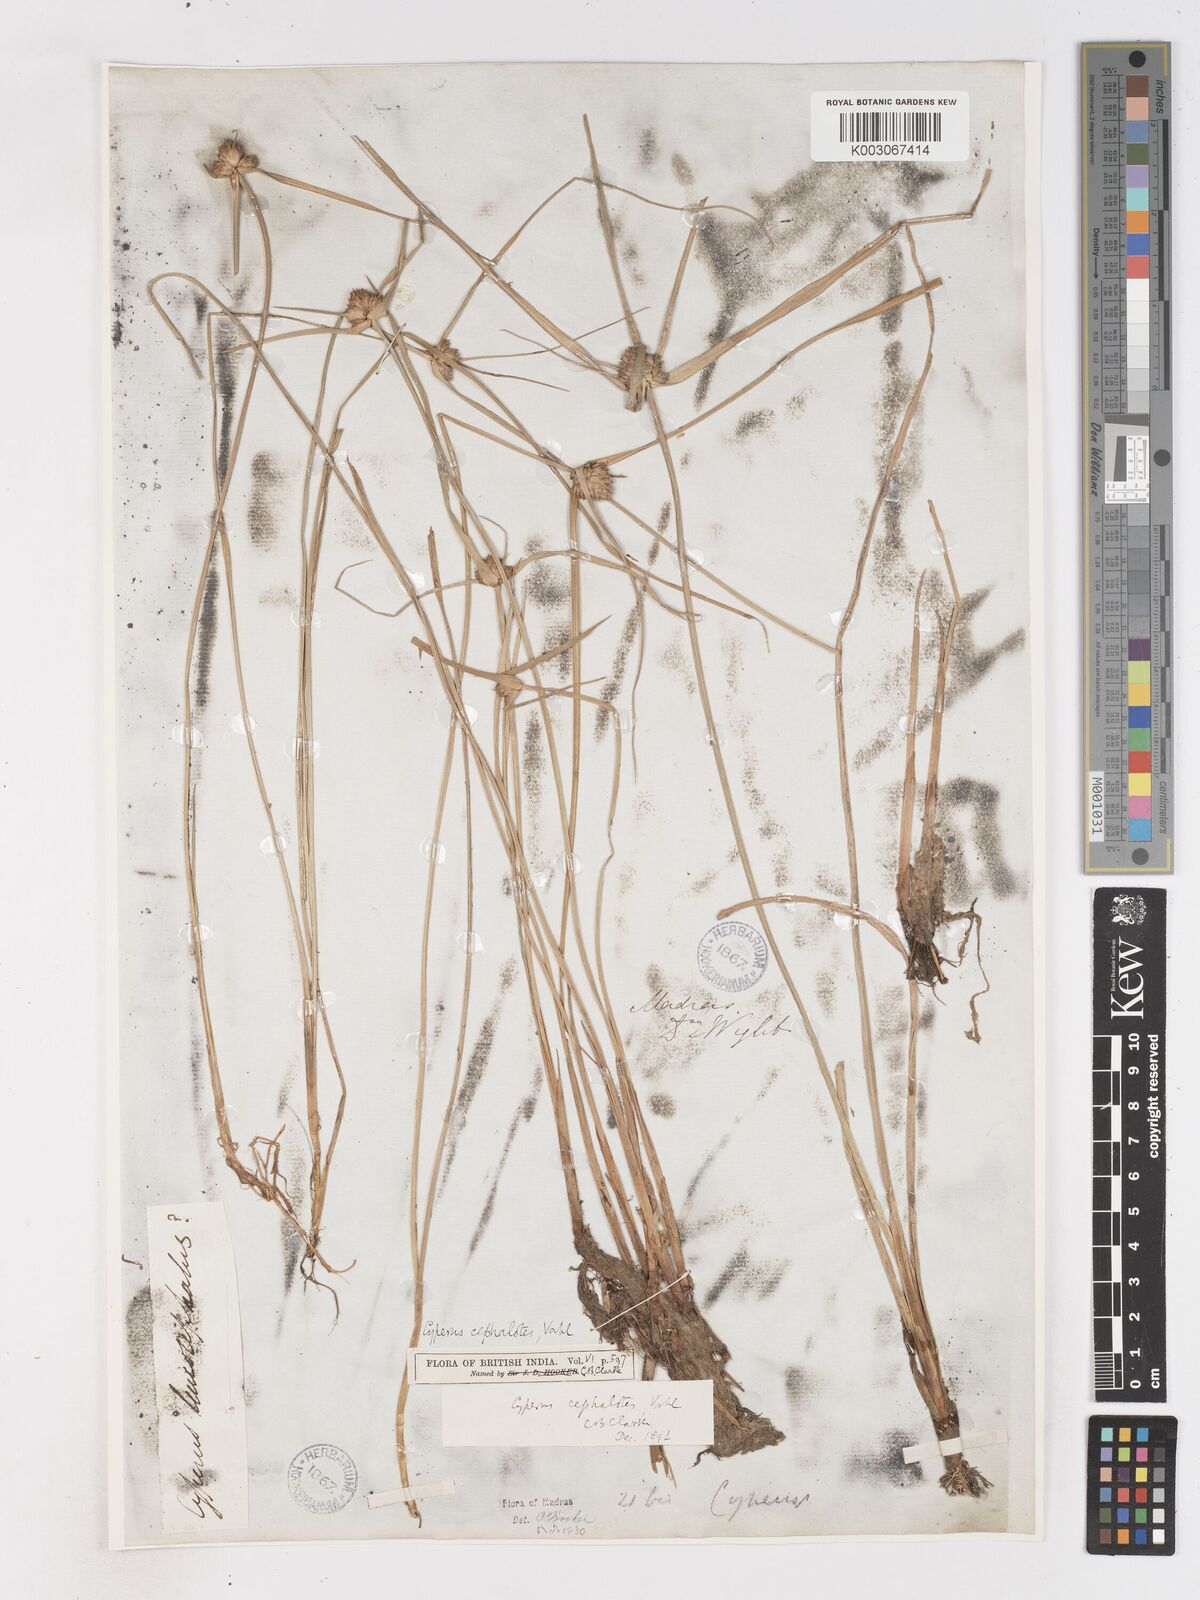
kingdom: Plantae
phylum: Tracheophyta
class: Liliopsida
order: Poales
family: Cyperaceae
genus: Cyperus
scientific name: Cyperus cephalotes
